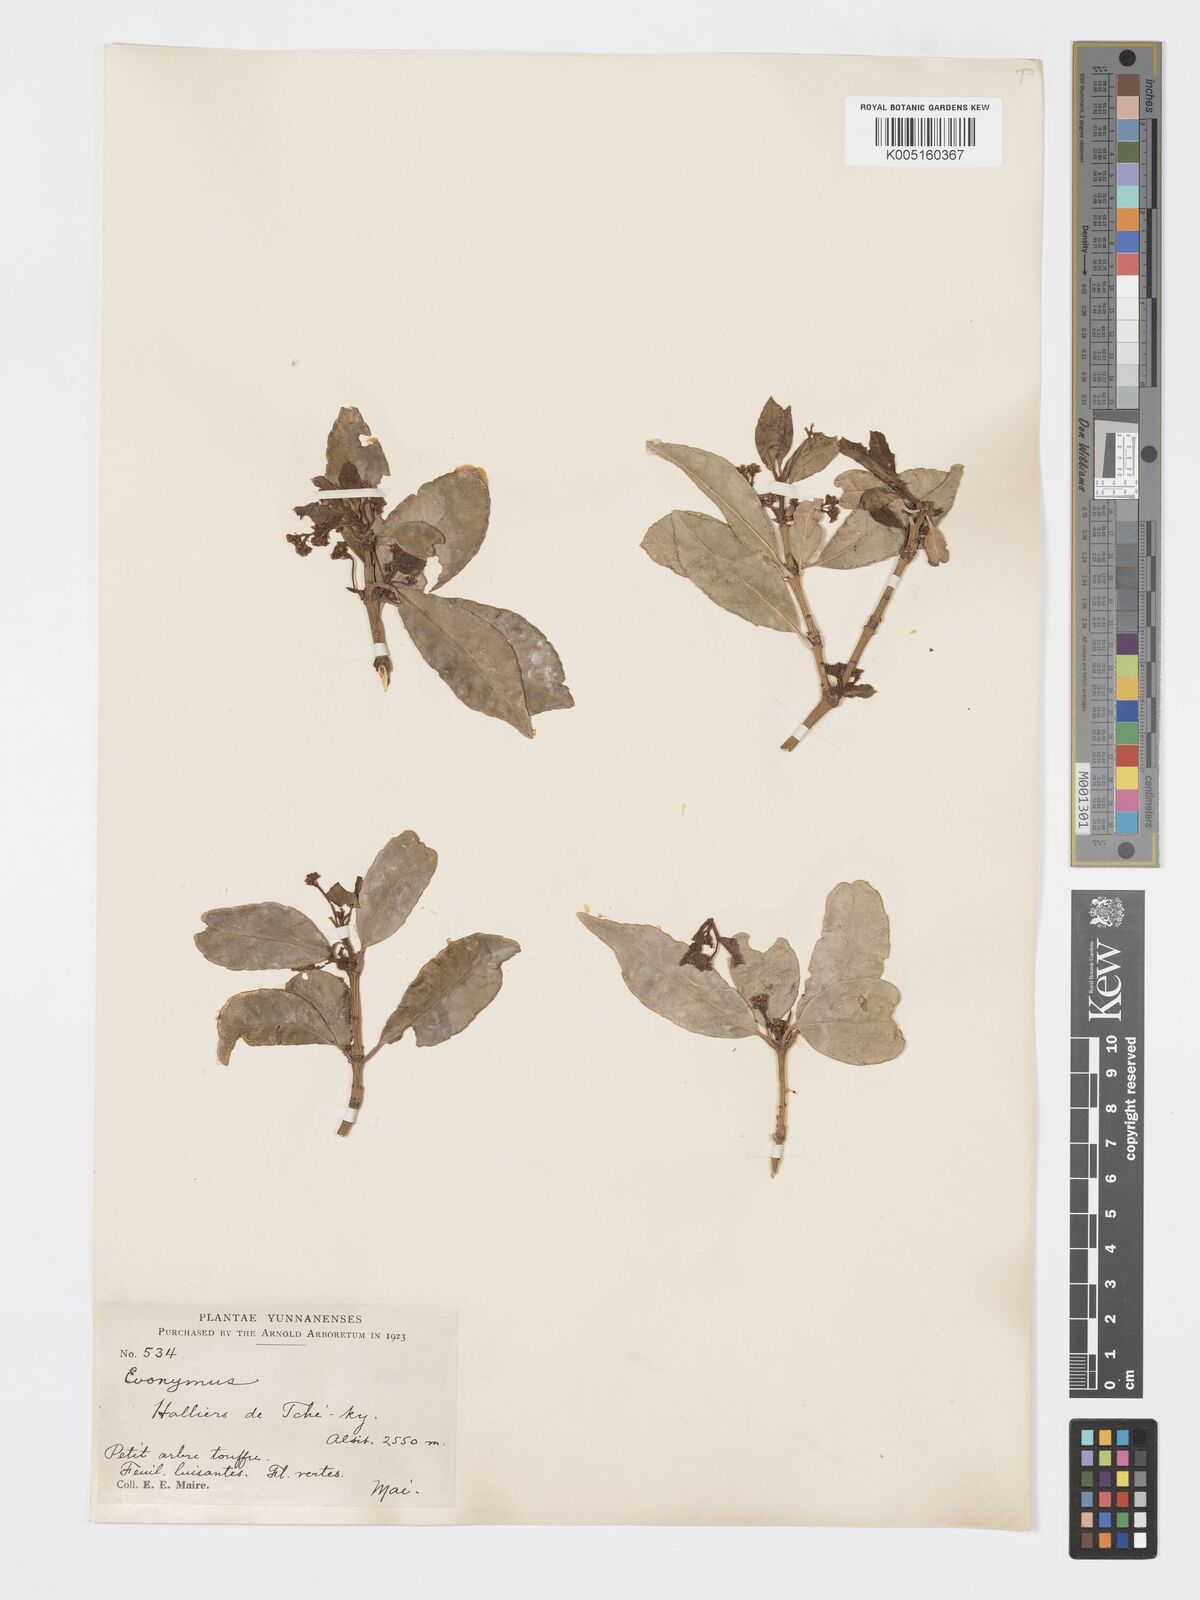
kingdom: Plantae
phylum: Tracheophyta
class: Magnoliopsida
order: Celastrales
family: Celastraceae
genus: Euonymus
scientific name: Euonymus
